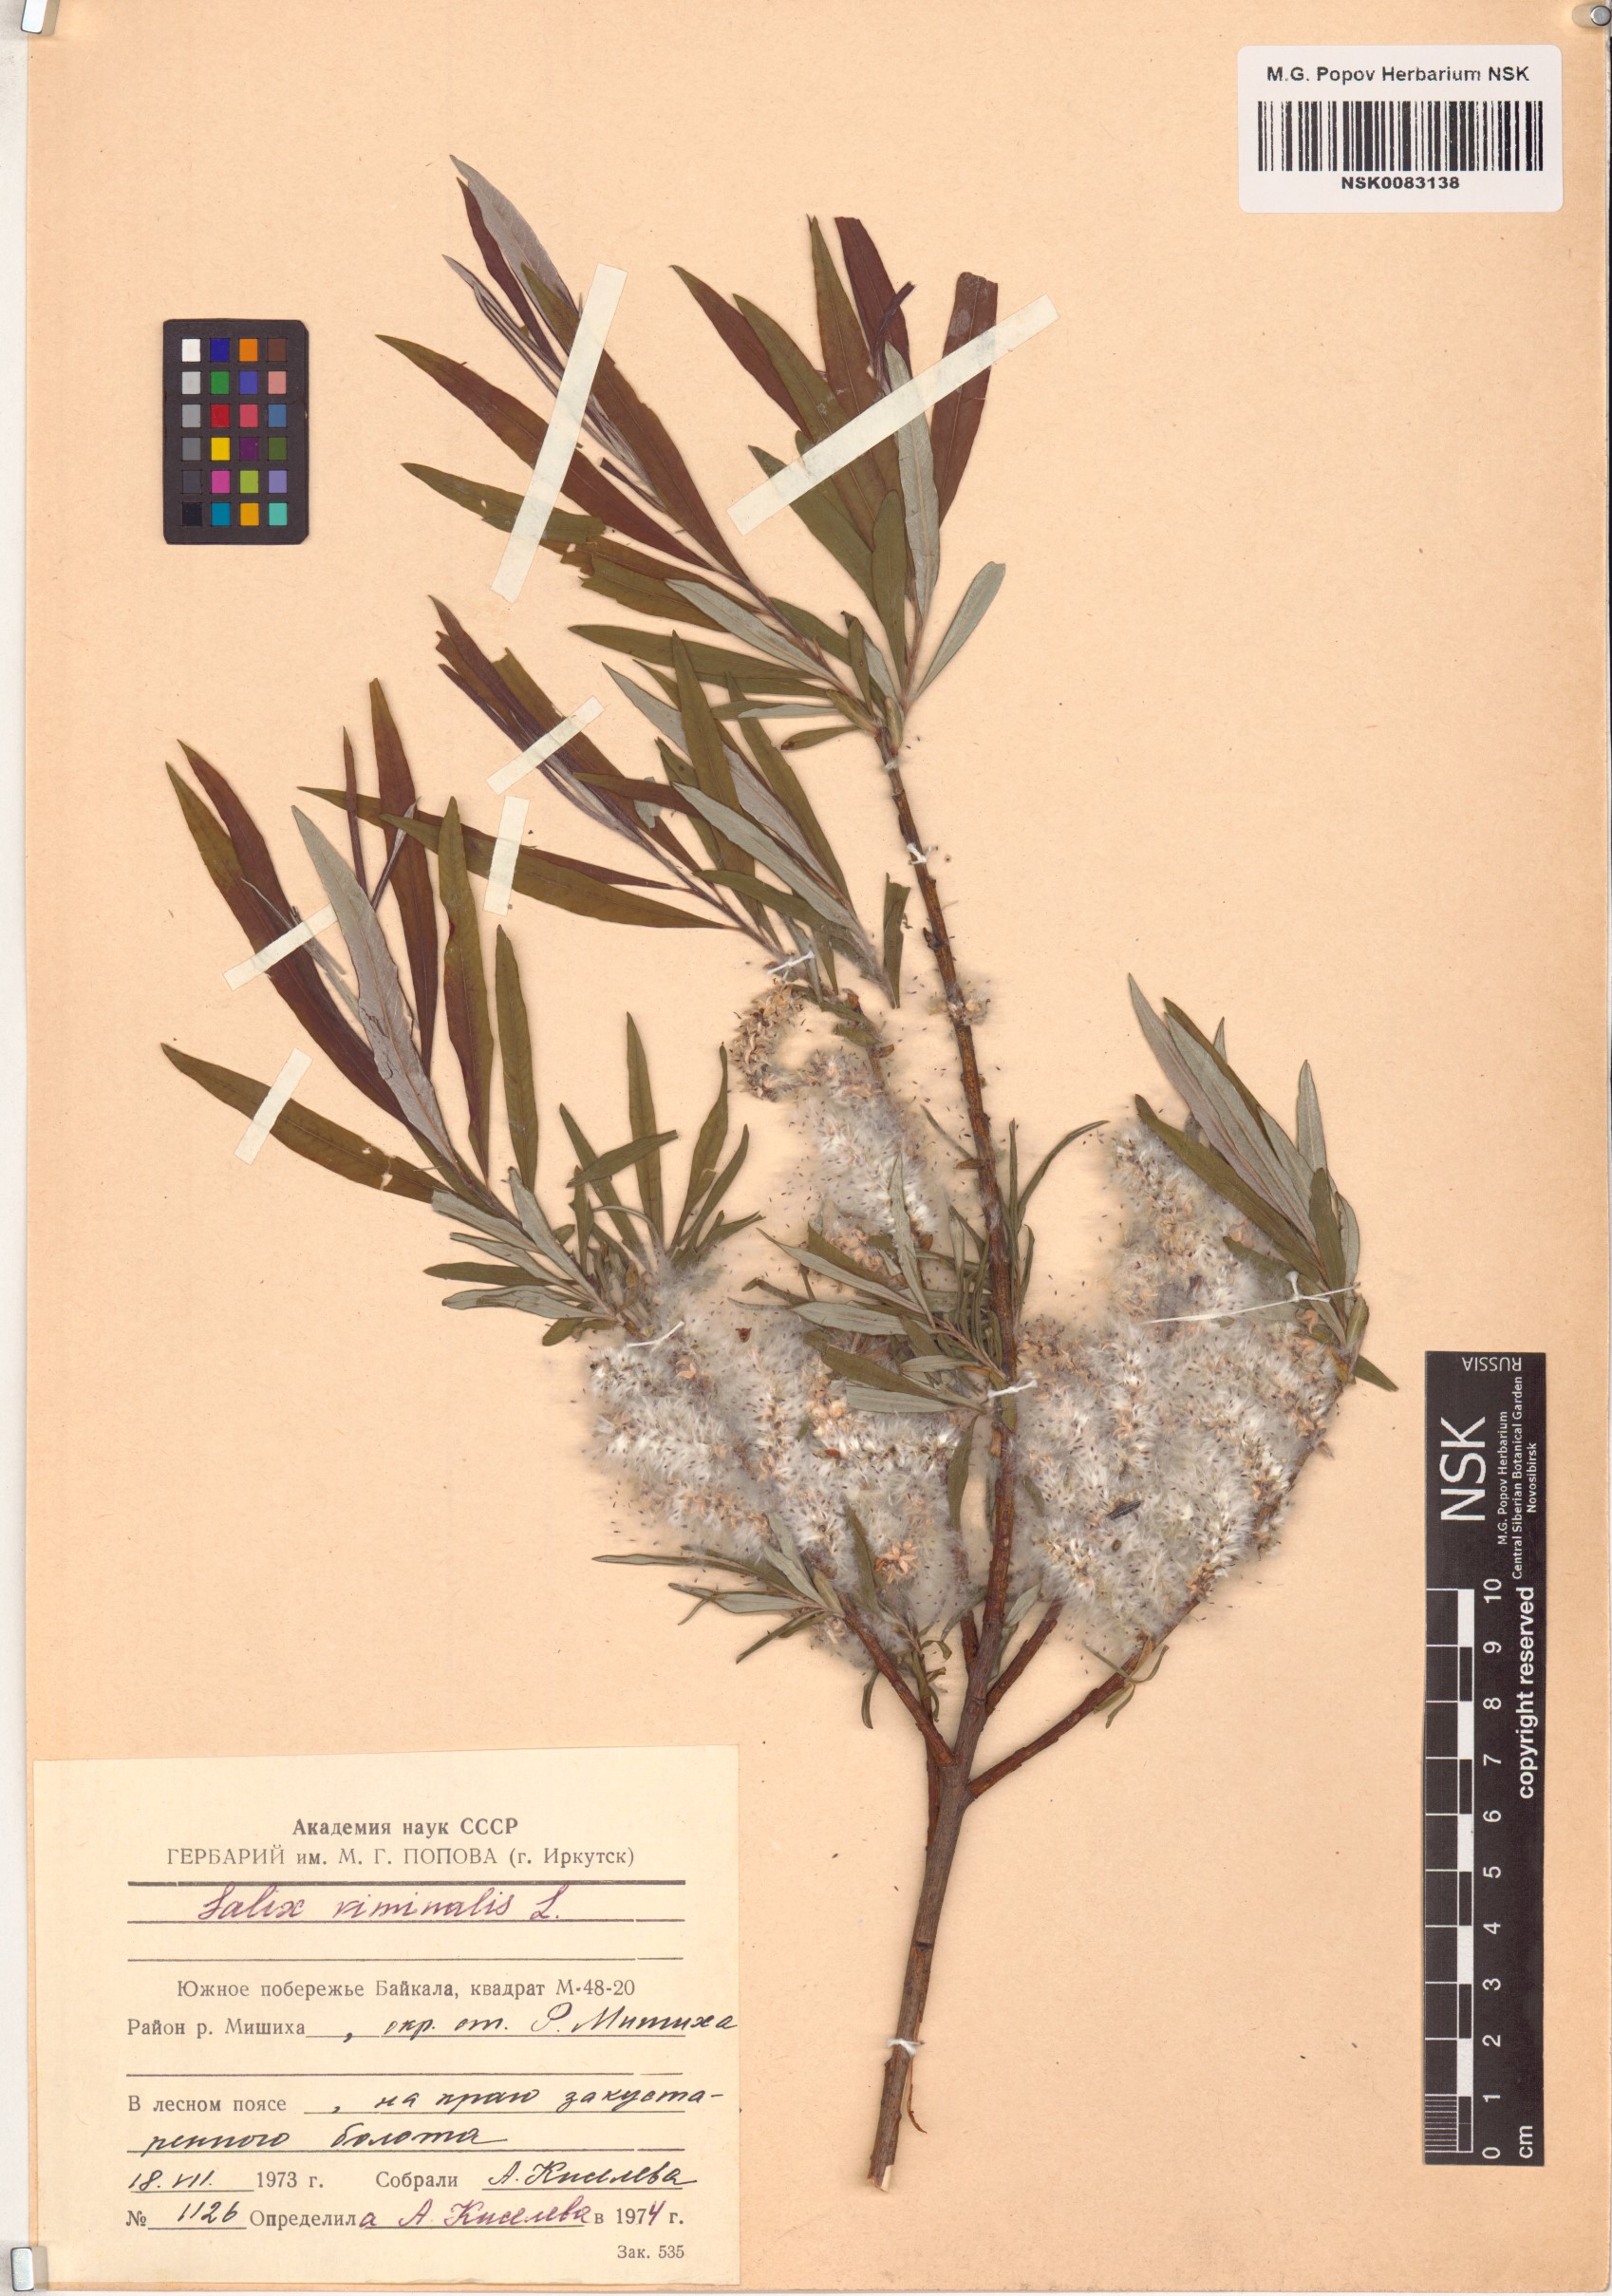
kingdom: Plantae
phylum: Tracheophyta
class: Magnoliopsida
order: Malpighiales
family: Salicaceae
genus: Salix
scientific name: Salix viminalis
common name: Osier
